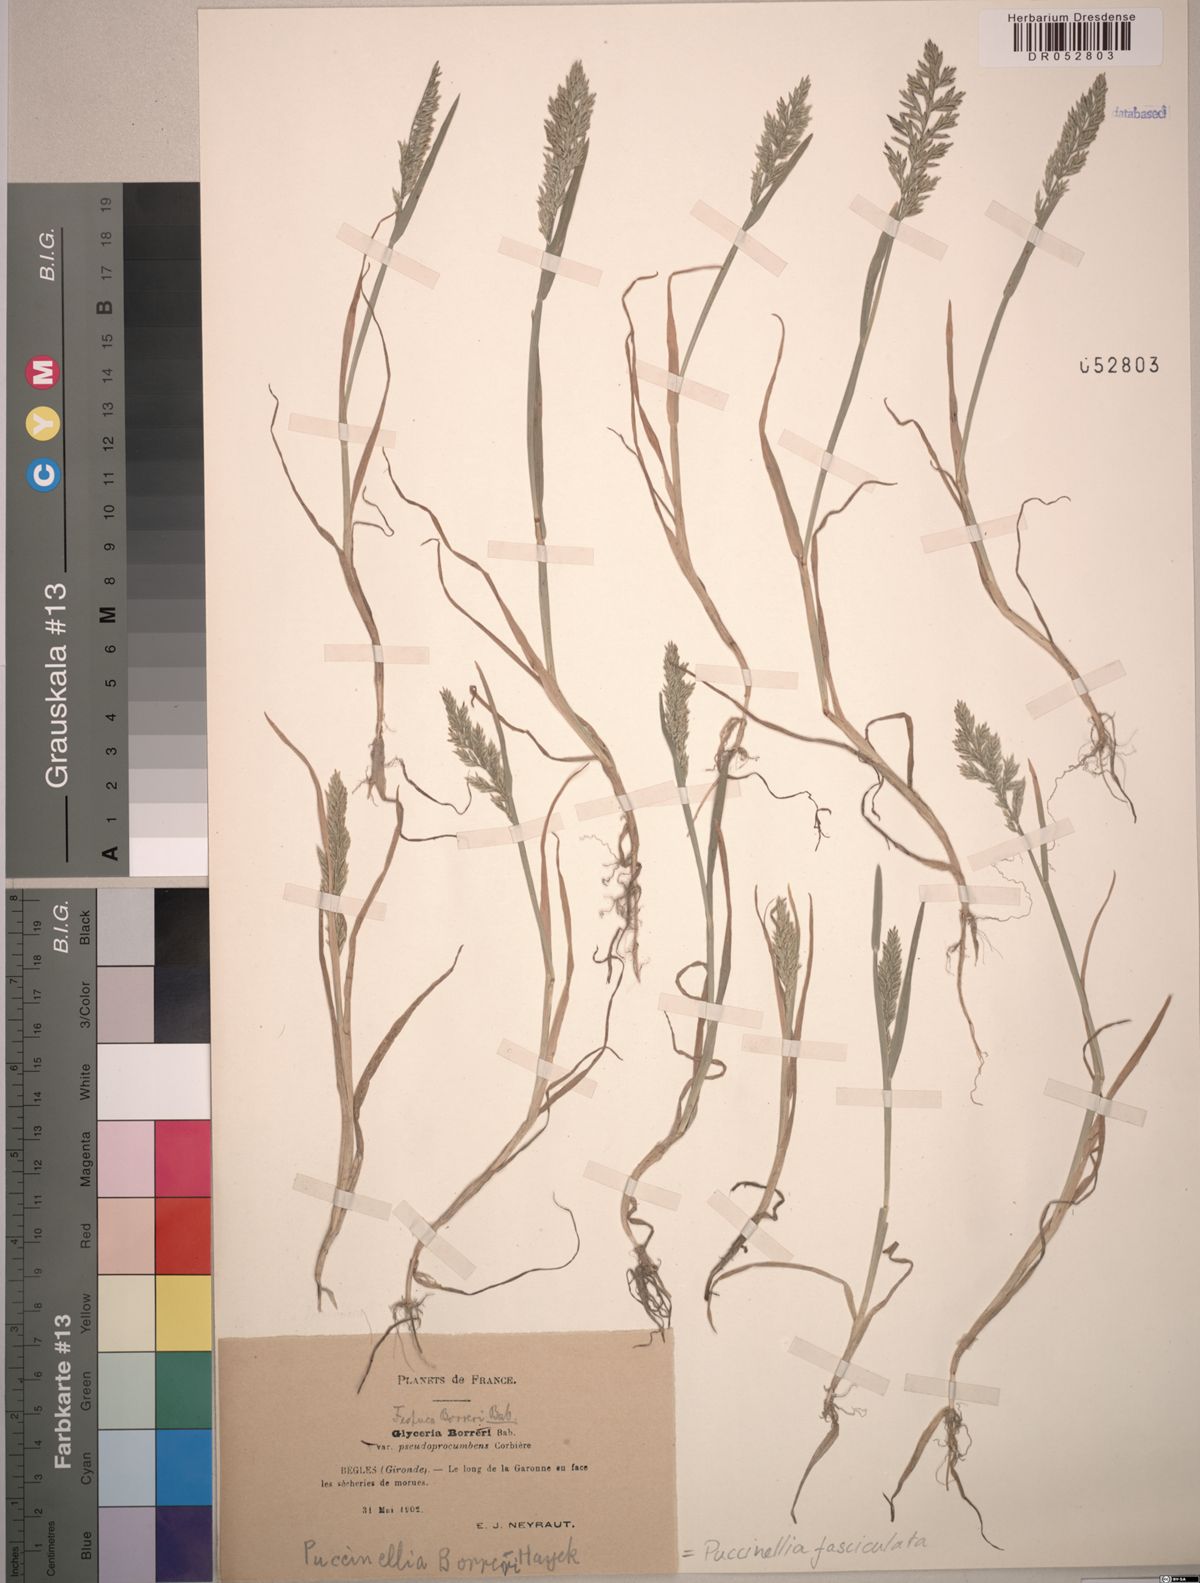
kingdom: Plantae
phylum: Tracheophyta
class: Liliopsida
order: Poales
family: Poaceae
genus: Puccinellia
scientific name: Puccinellia fasciculata
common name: Borrer's saltmarsh-grass
